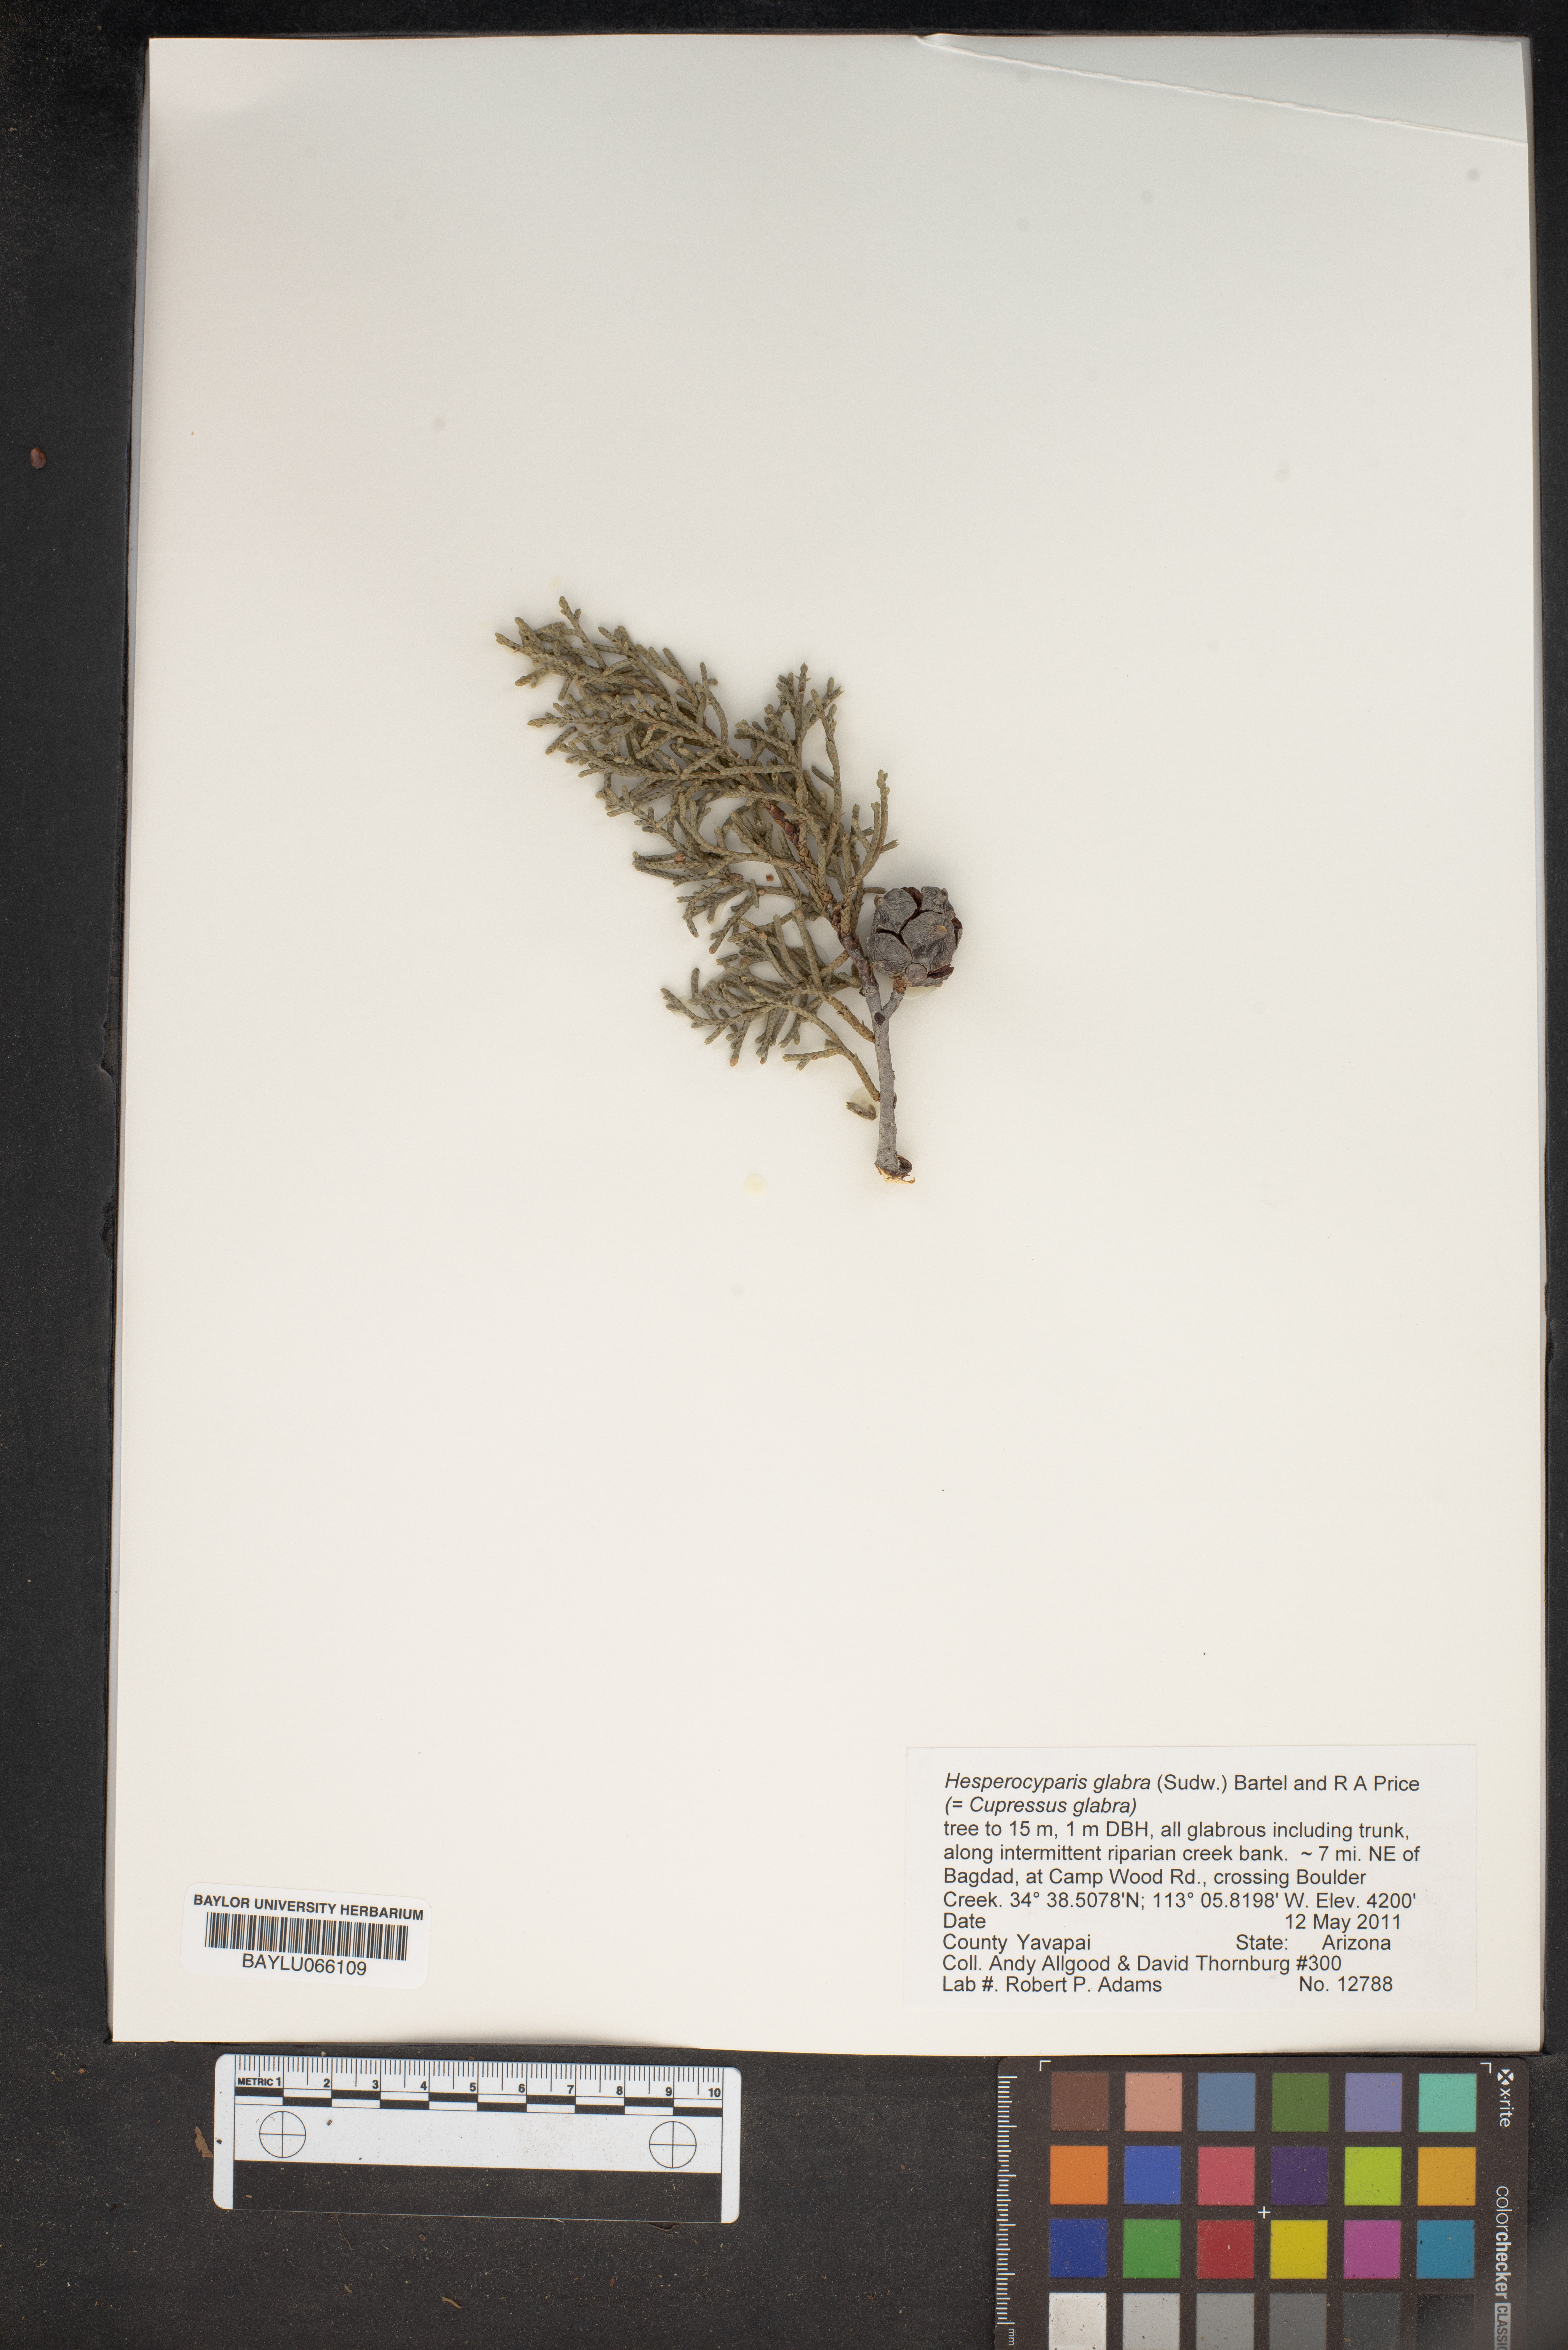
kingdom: Plantae
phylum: Tracheophyta
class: Pinopsida
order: Pinales
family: Cupressaceae
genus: Cupressus
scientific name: Cupressus arizonica
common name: Arizona cypress
